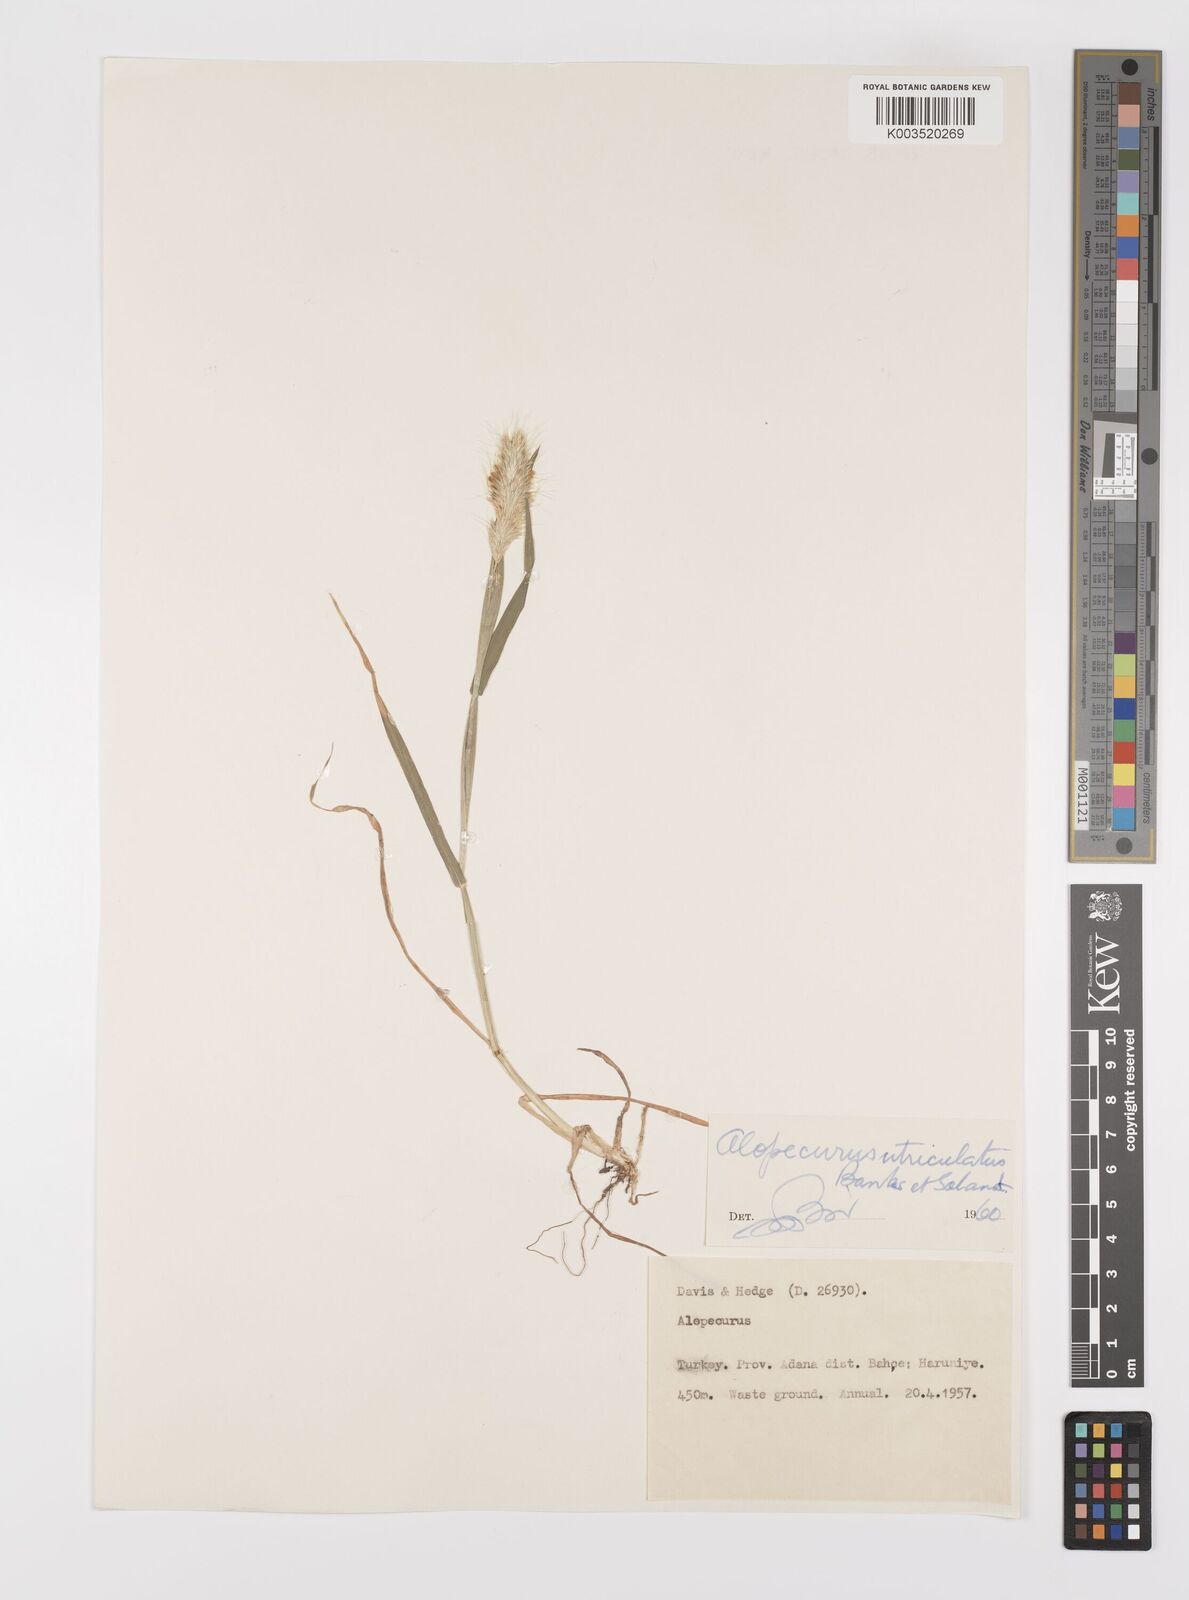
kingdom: Plantae
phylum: Tracheophyta
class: Liliopsida
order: Poales
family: Poaceae
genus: Alopecurus
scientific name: Alopecurus utriculatus
